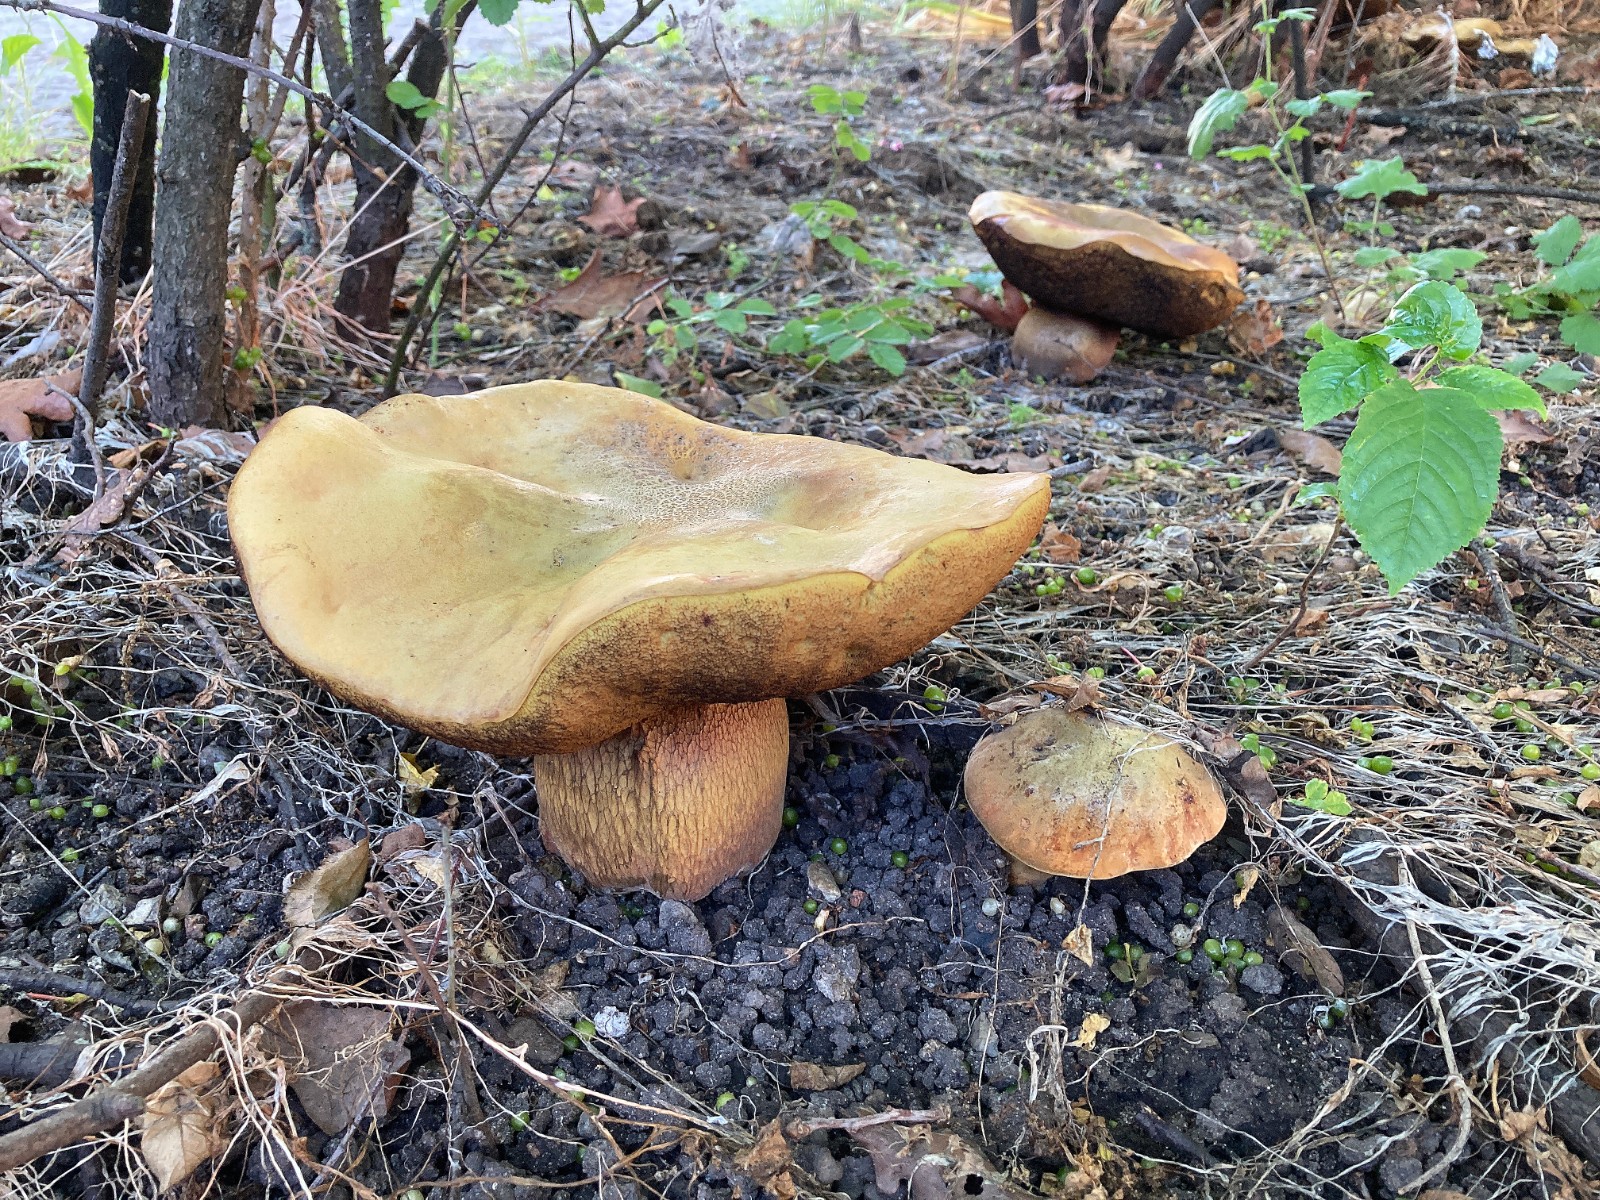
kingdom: Fungi
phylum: Basidiomycota
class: Agaricomycetes
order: Boletales
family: Boletaceae
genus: Suillellus
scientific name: Suillellus luridus
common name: netstokket indigorørhat
